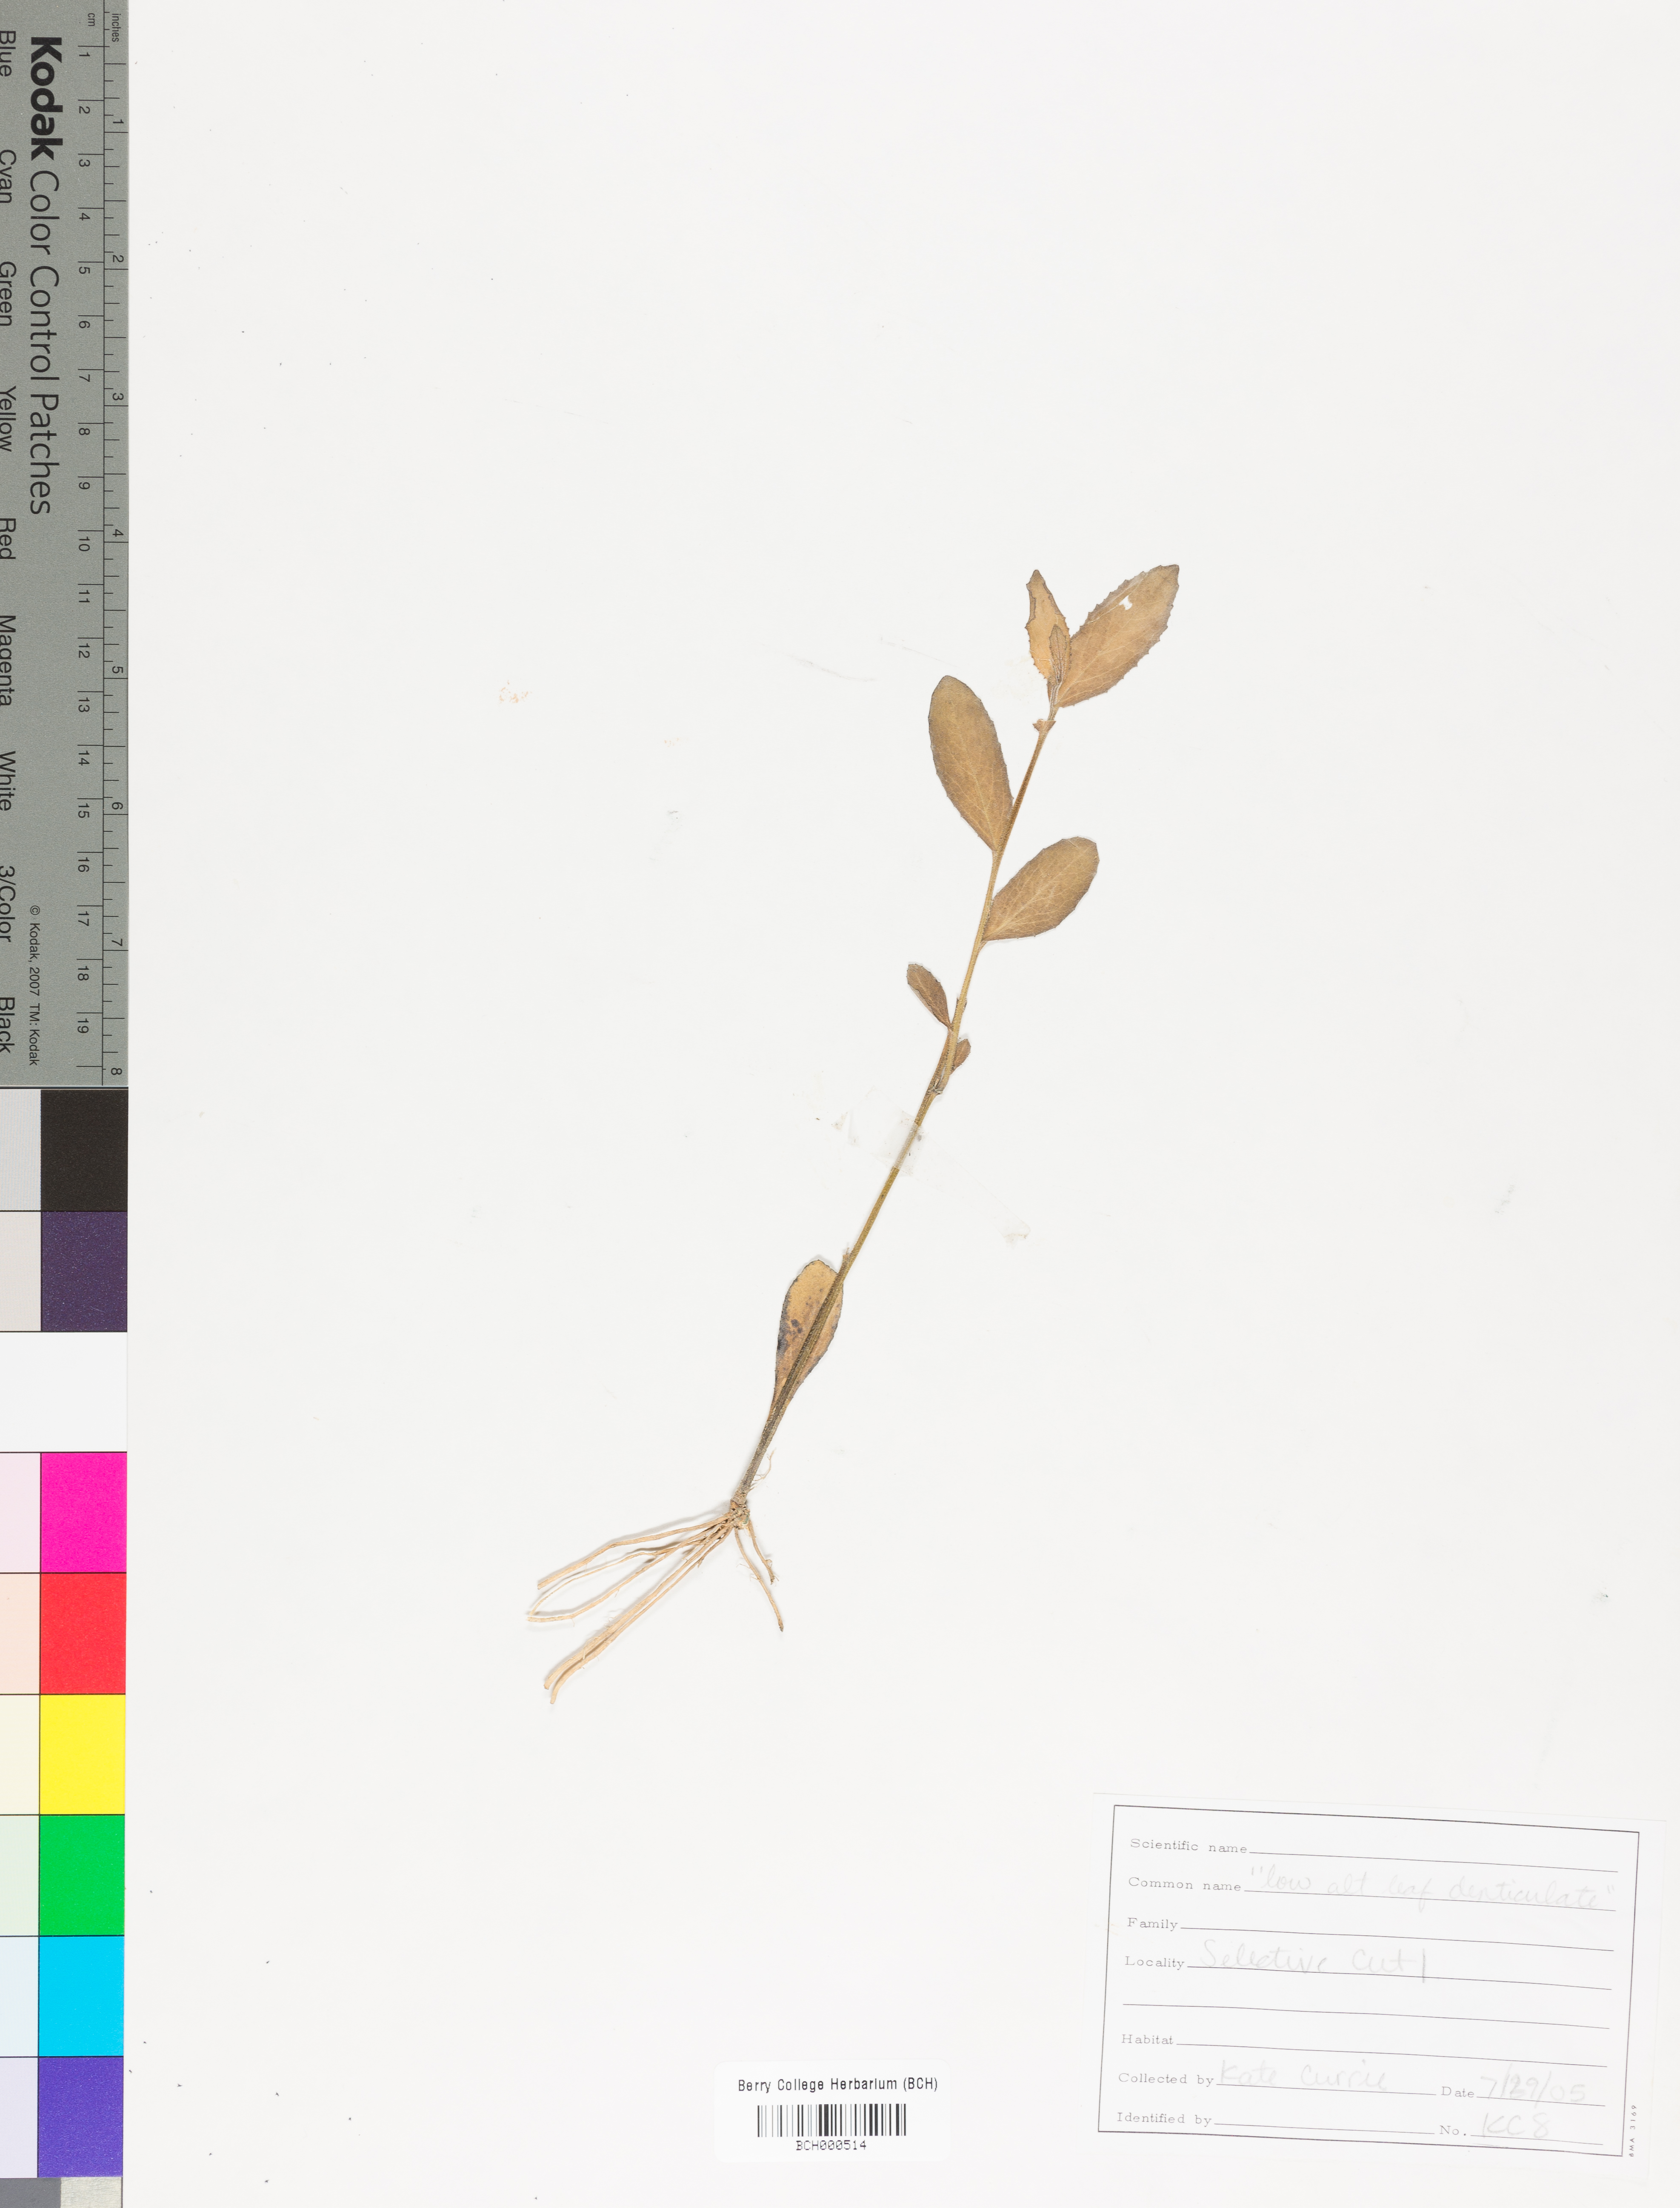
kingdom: Plantae
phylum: Tracheophyta
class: Magnoliopsida
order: Lamiales
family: Acanthaceae
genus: Adhatoda
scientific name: Adhatoda
